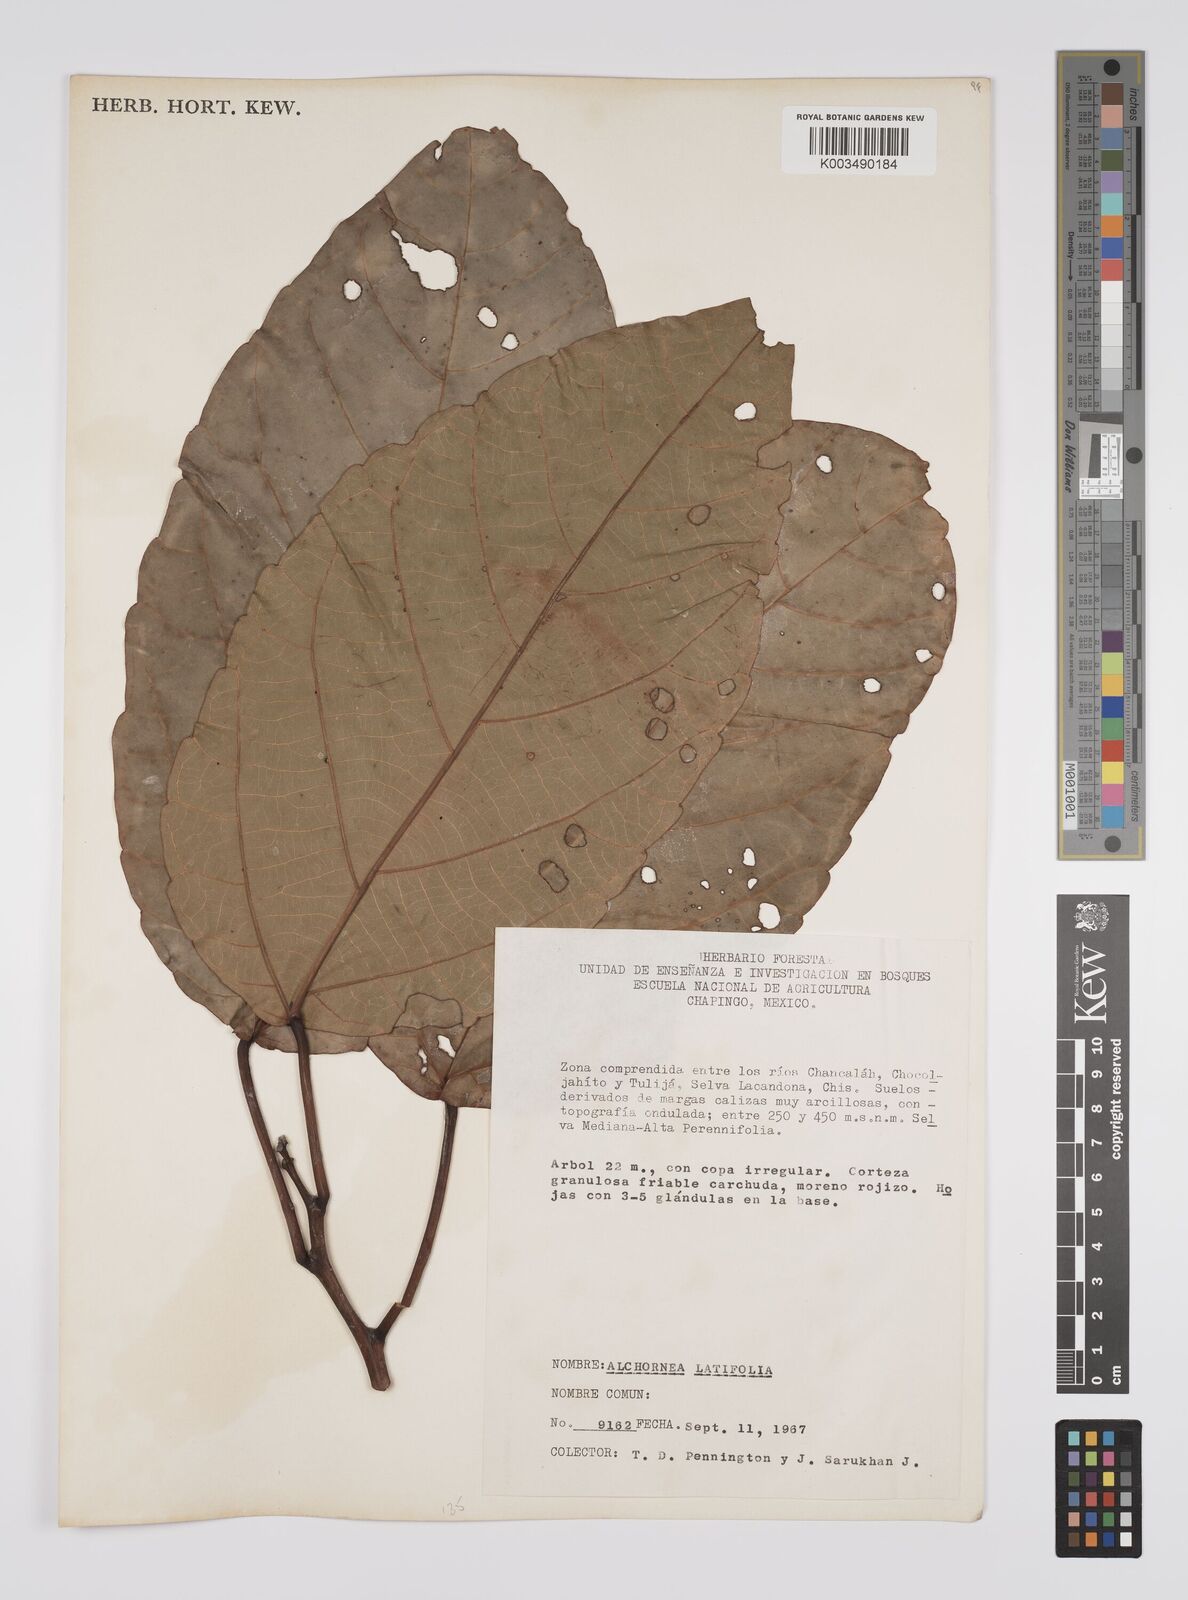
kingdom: Plantae
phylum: Tracheophyta
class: Magnoliopsida
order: Malpighiales
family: Euphorbiaceae
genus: Alchornea
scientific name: Alchornea latifolia
